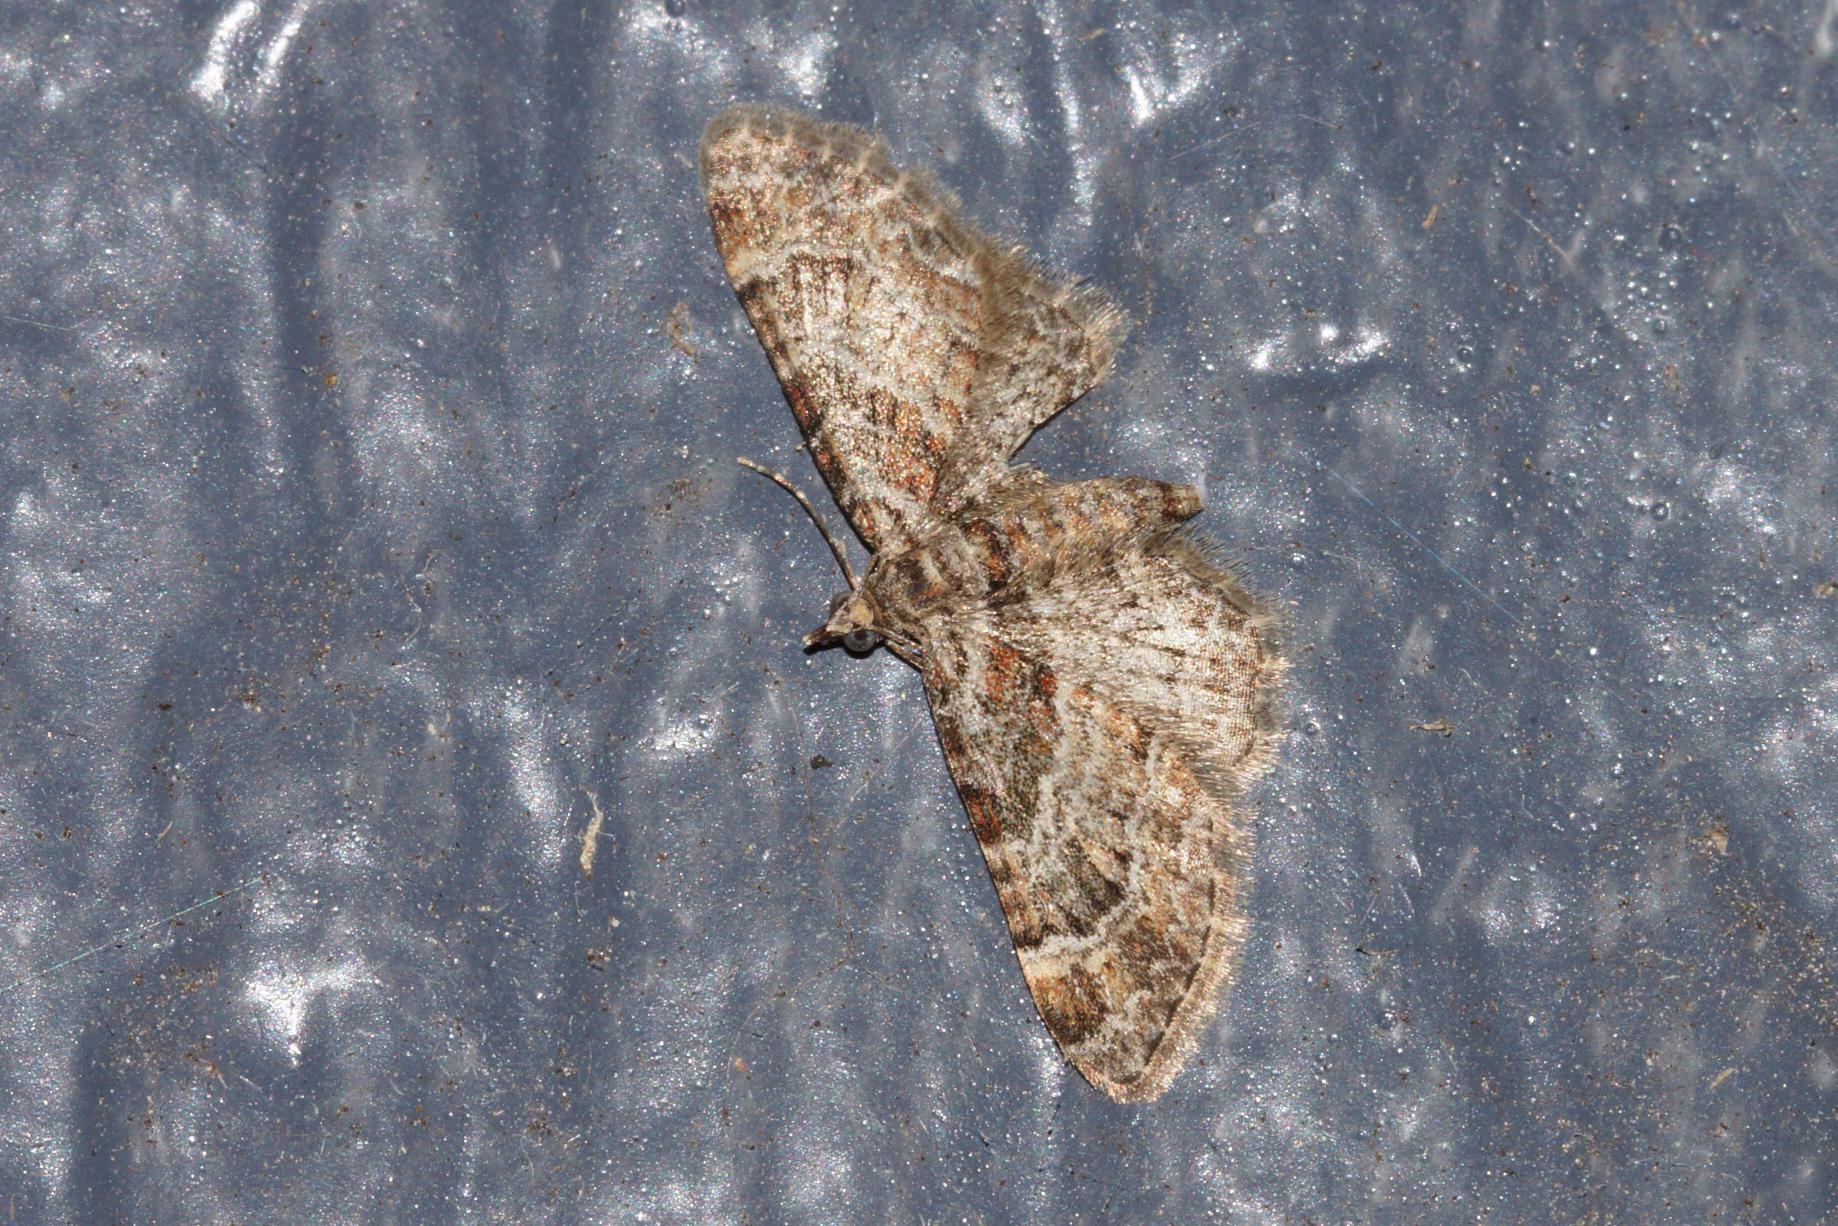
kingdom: Animalia
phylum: Arthropoda
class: Insecta
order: Lepidoptera
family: Geometridae
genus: Gymnoscelis
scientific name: Gymnoscelis rufifasciata
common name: Rødbåndet dværgmåler
